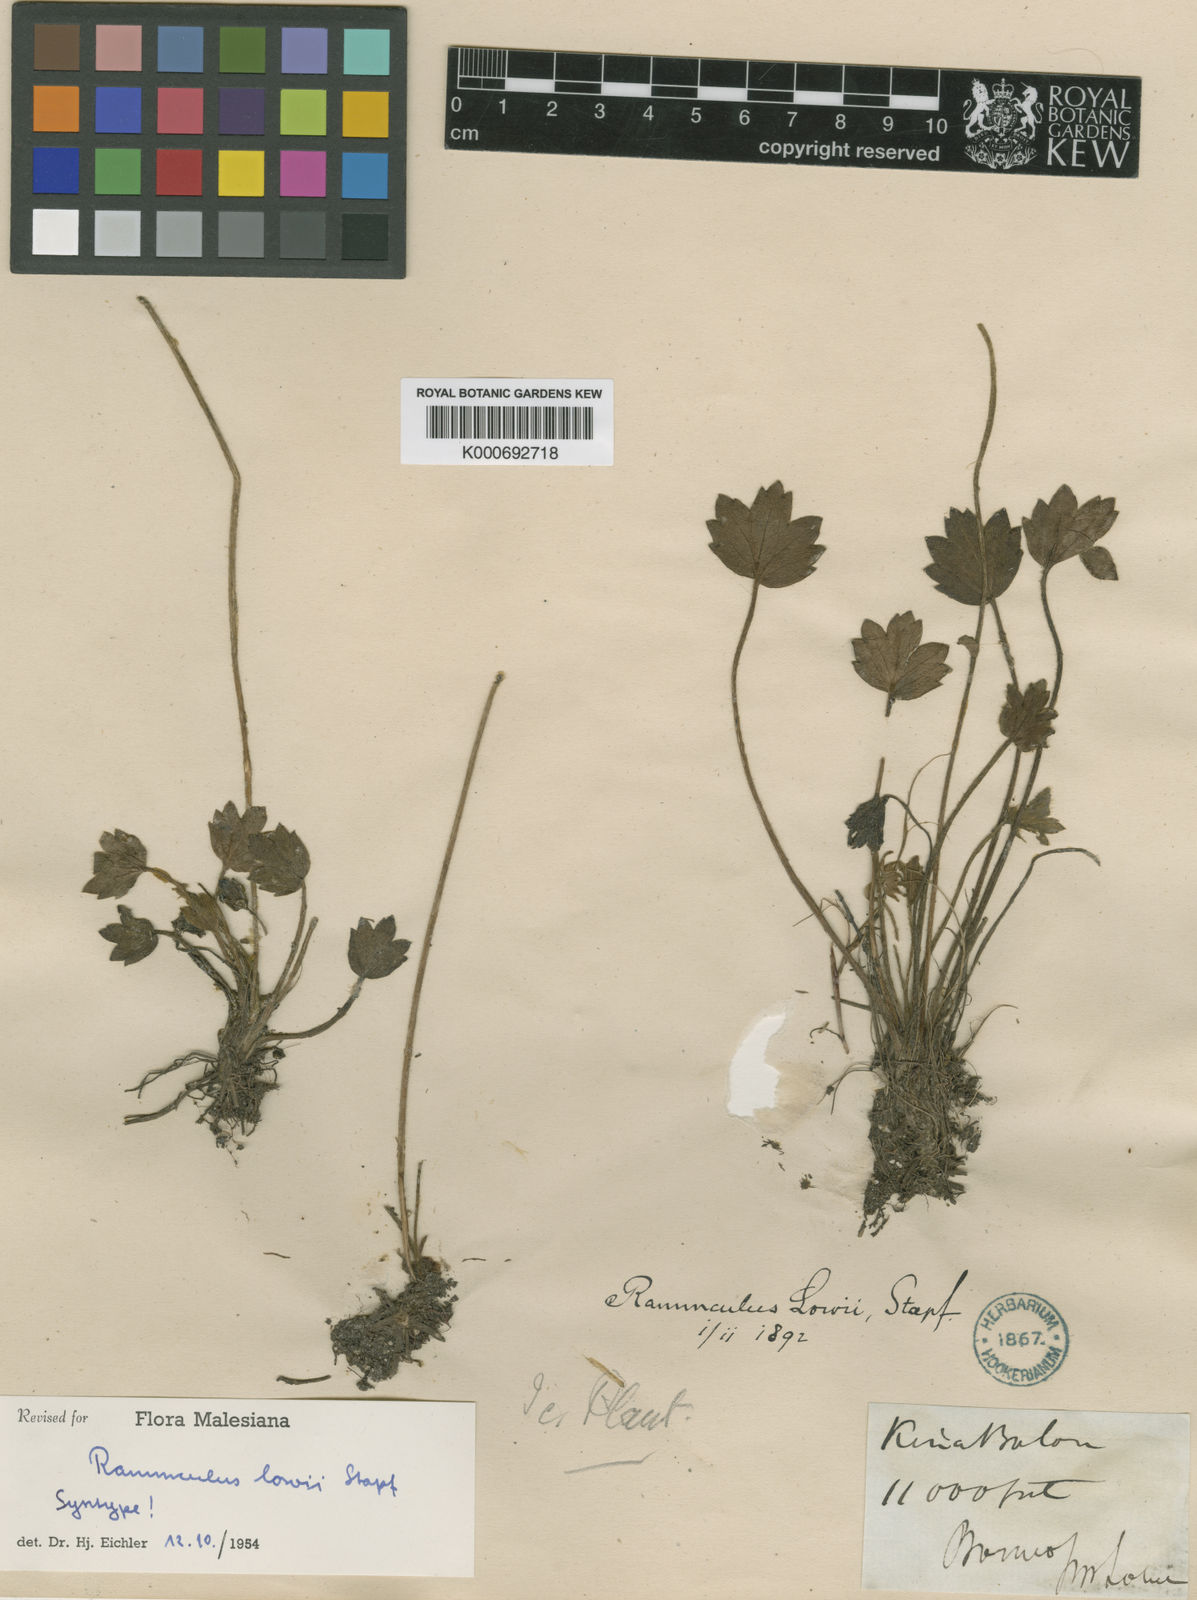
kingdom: Plantae
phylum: Tracheophyta
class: Magnoliopsida
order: Ranunculales
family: Ranunculaceae
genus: Ranunculus
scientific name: Ranunculus lowii
